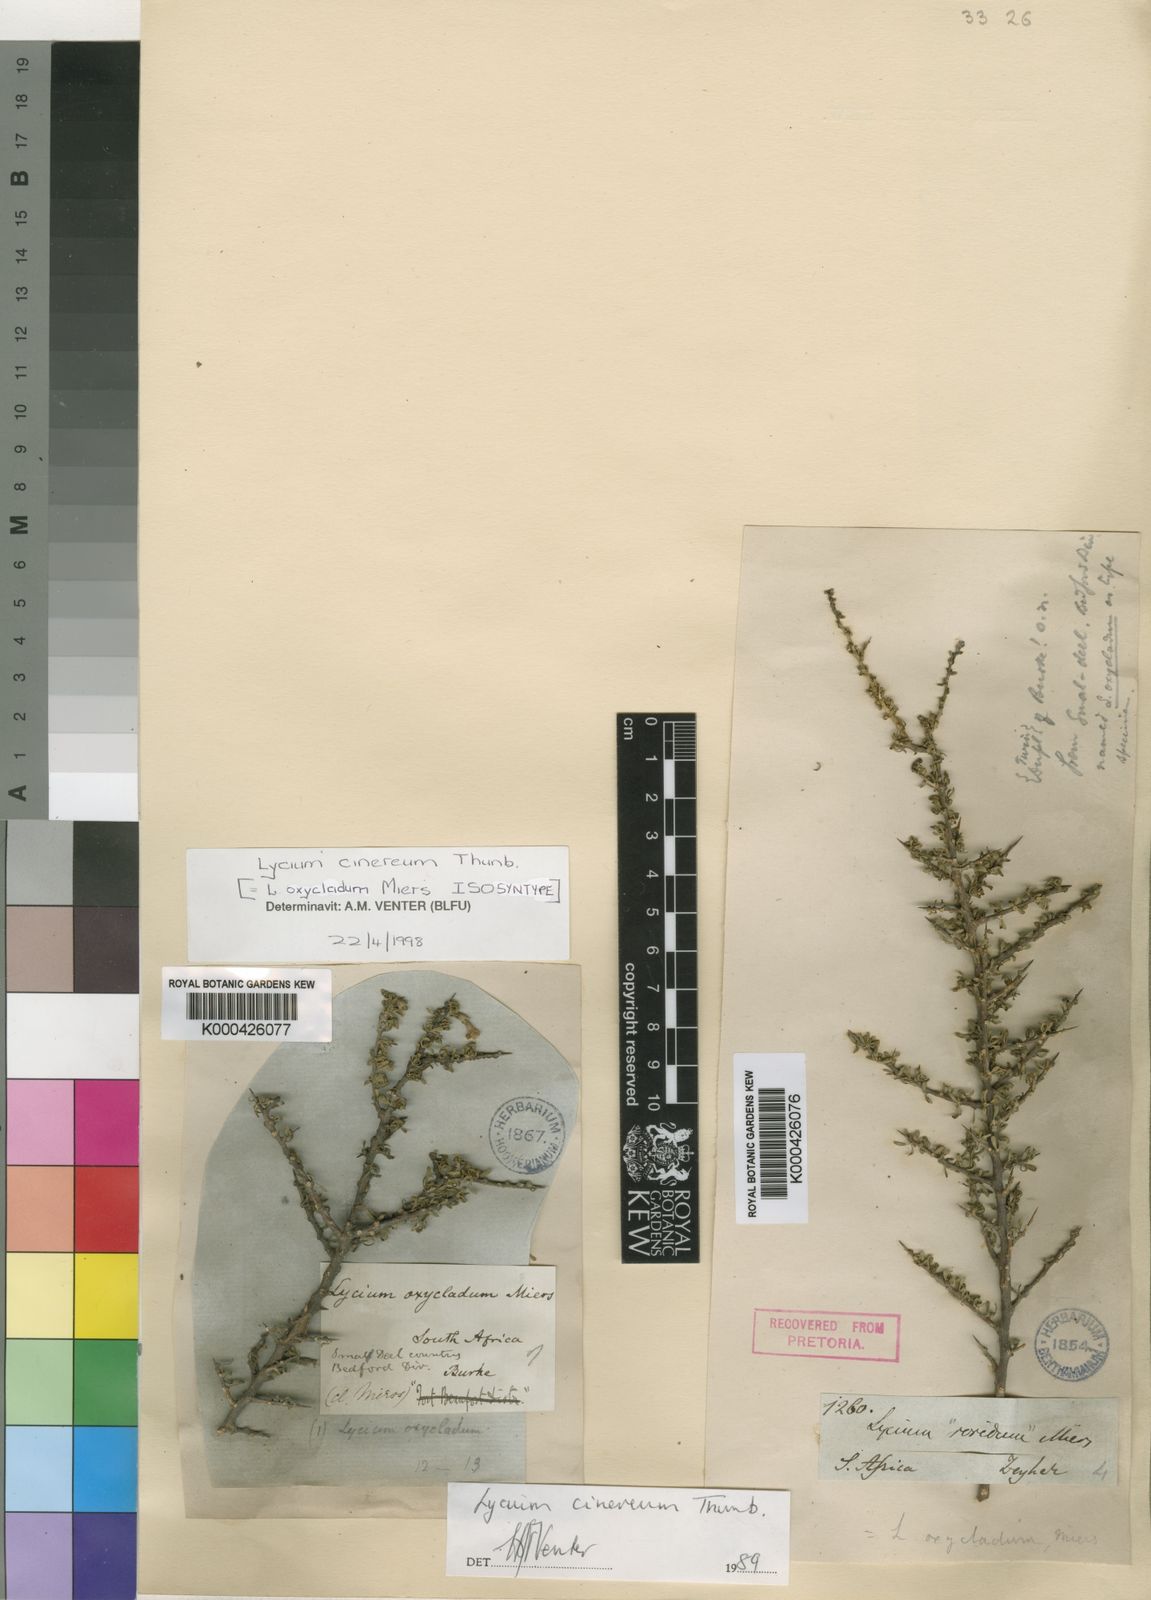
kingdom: Plantae
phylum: Tracheophyta
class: Magnoliopsida
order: Solanales
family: Solanaceae
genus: Lycium
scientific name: Lycium horridum
